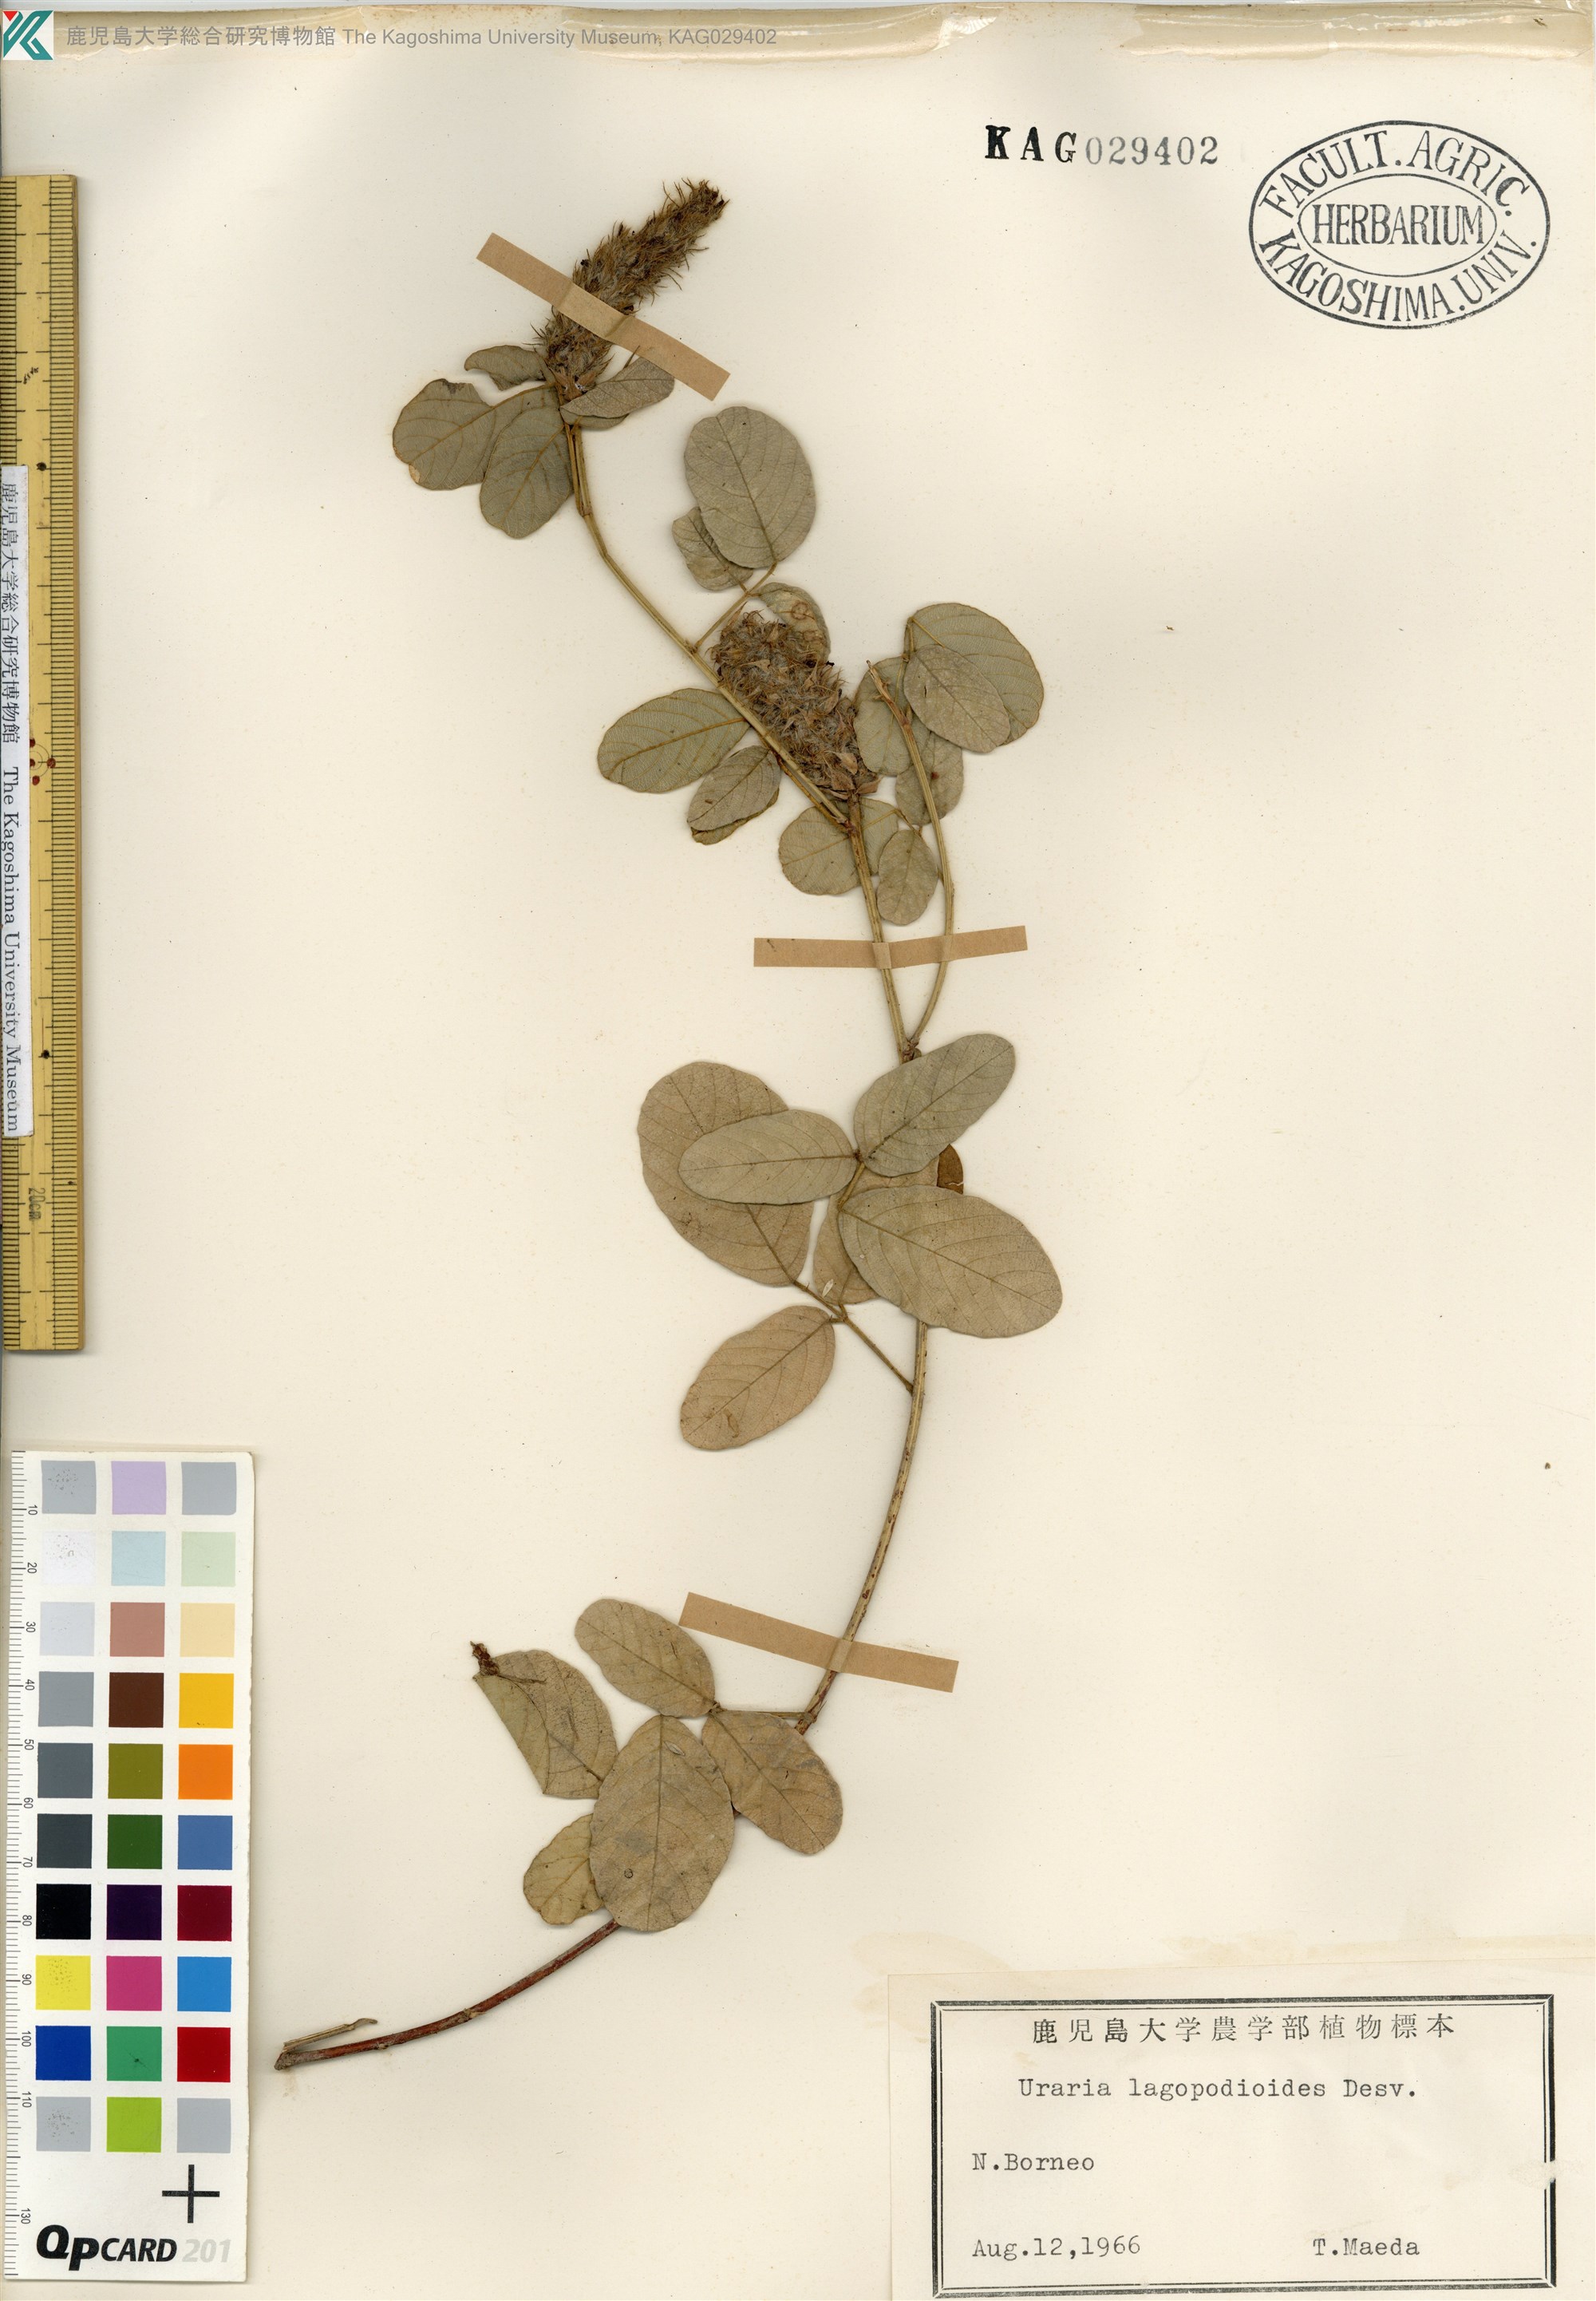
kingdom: Plantae
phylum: Tracheophyta
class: Magnoliopsida
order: Fabales
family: Fabaceae
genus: Uraria
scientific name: Uraria lagopodioides
